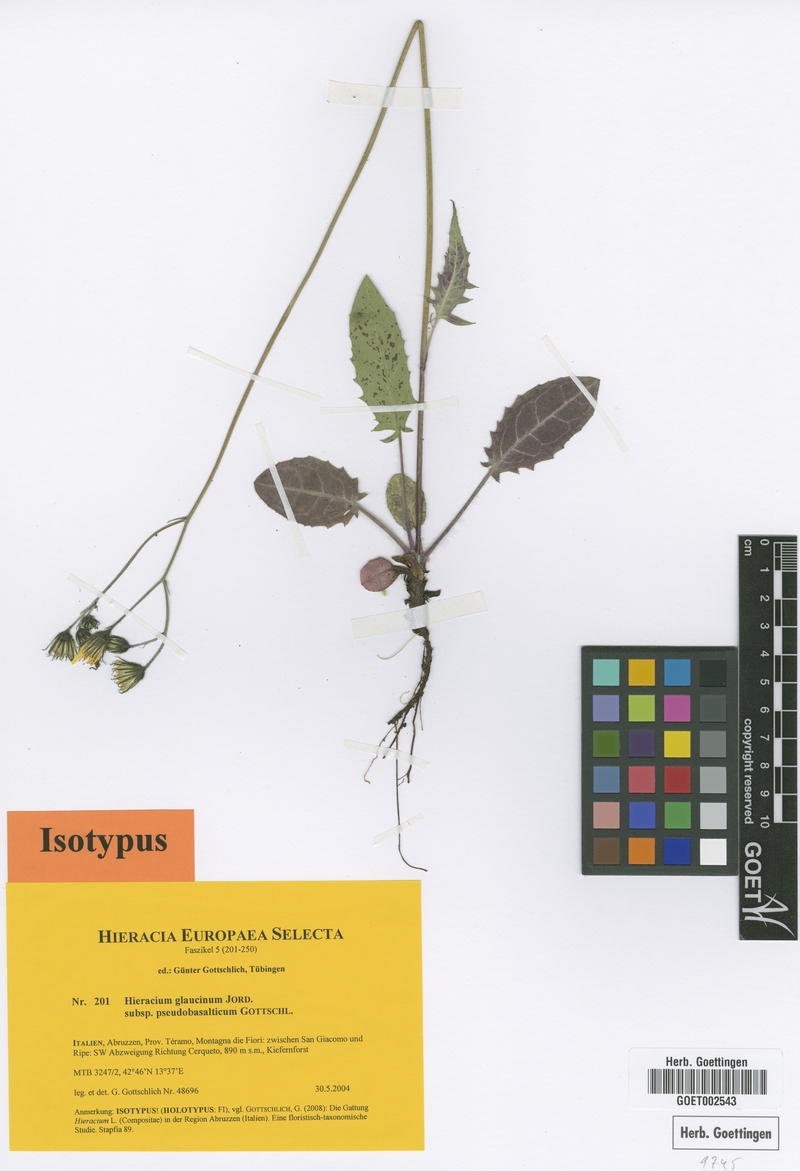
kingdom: Plantae
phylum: Tracheophyta
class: Magnoliopsida
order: Asterales
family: Asteraceae
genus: Hieracium
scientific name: Hieracium glaucinum
